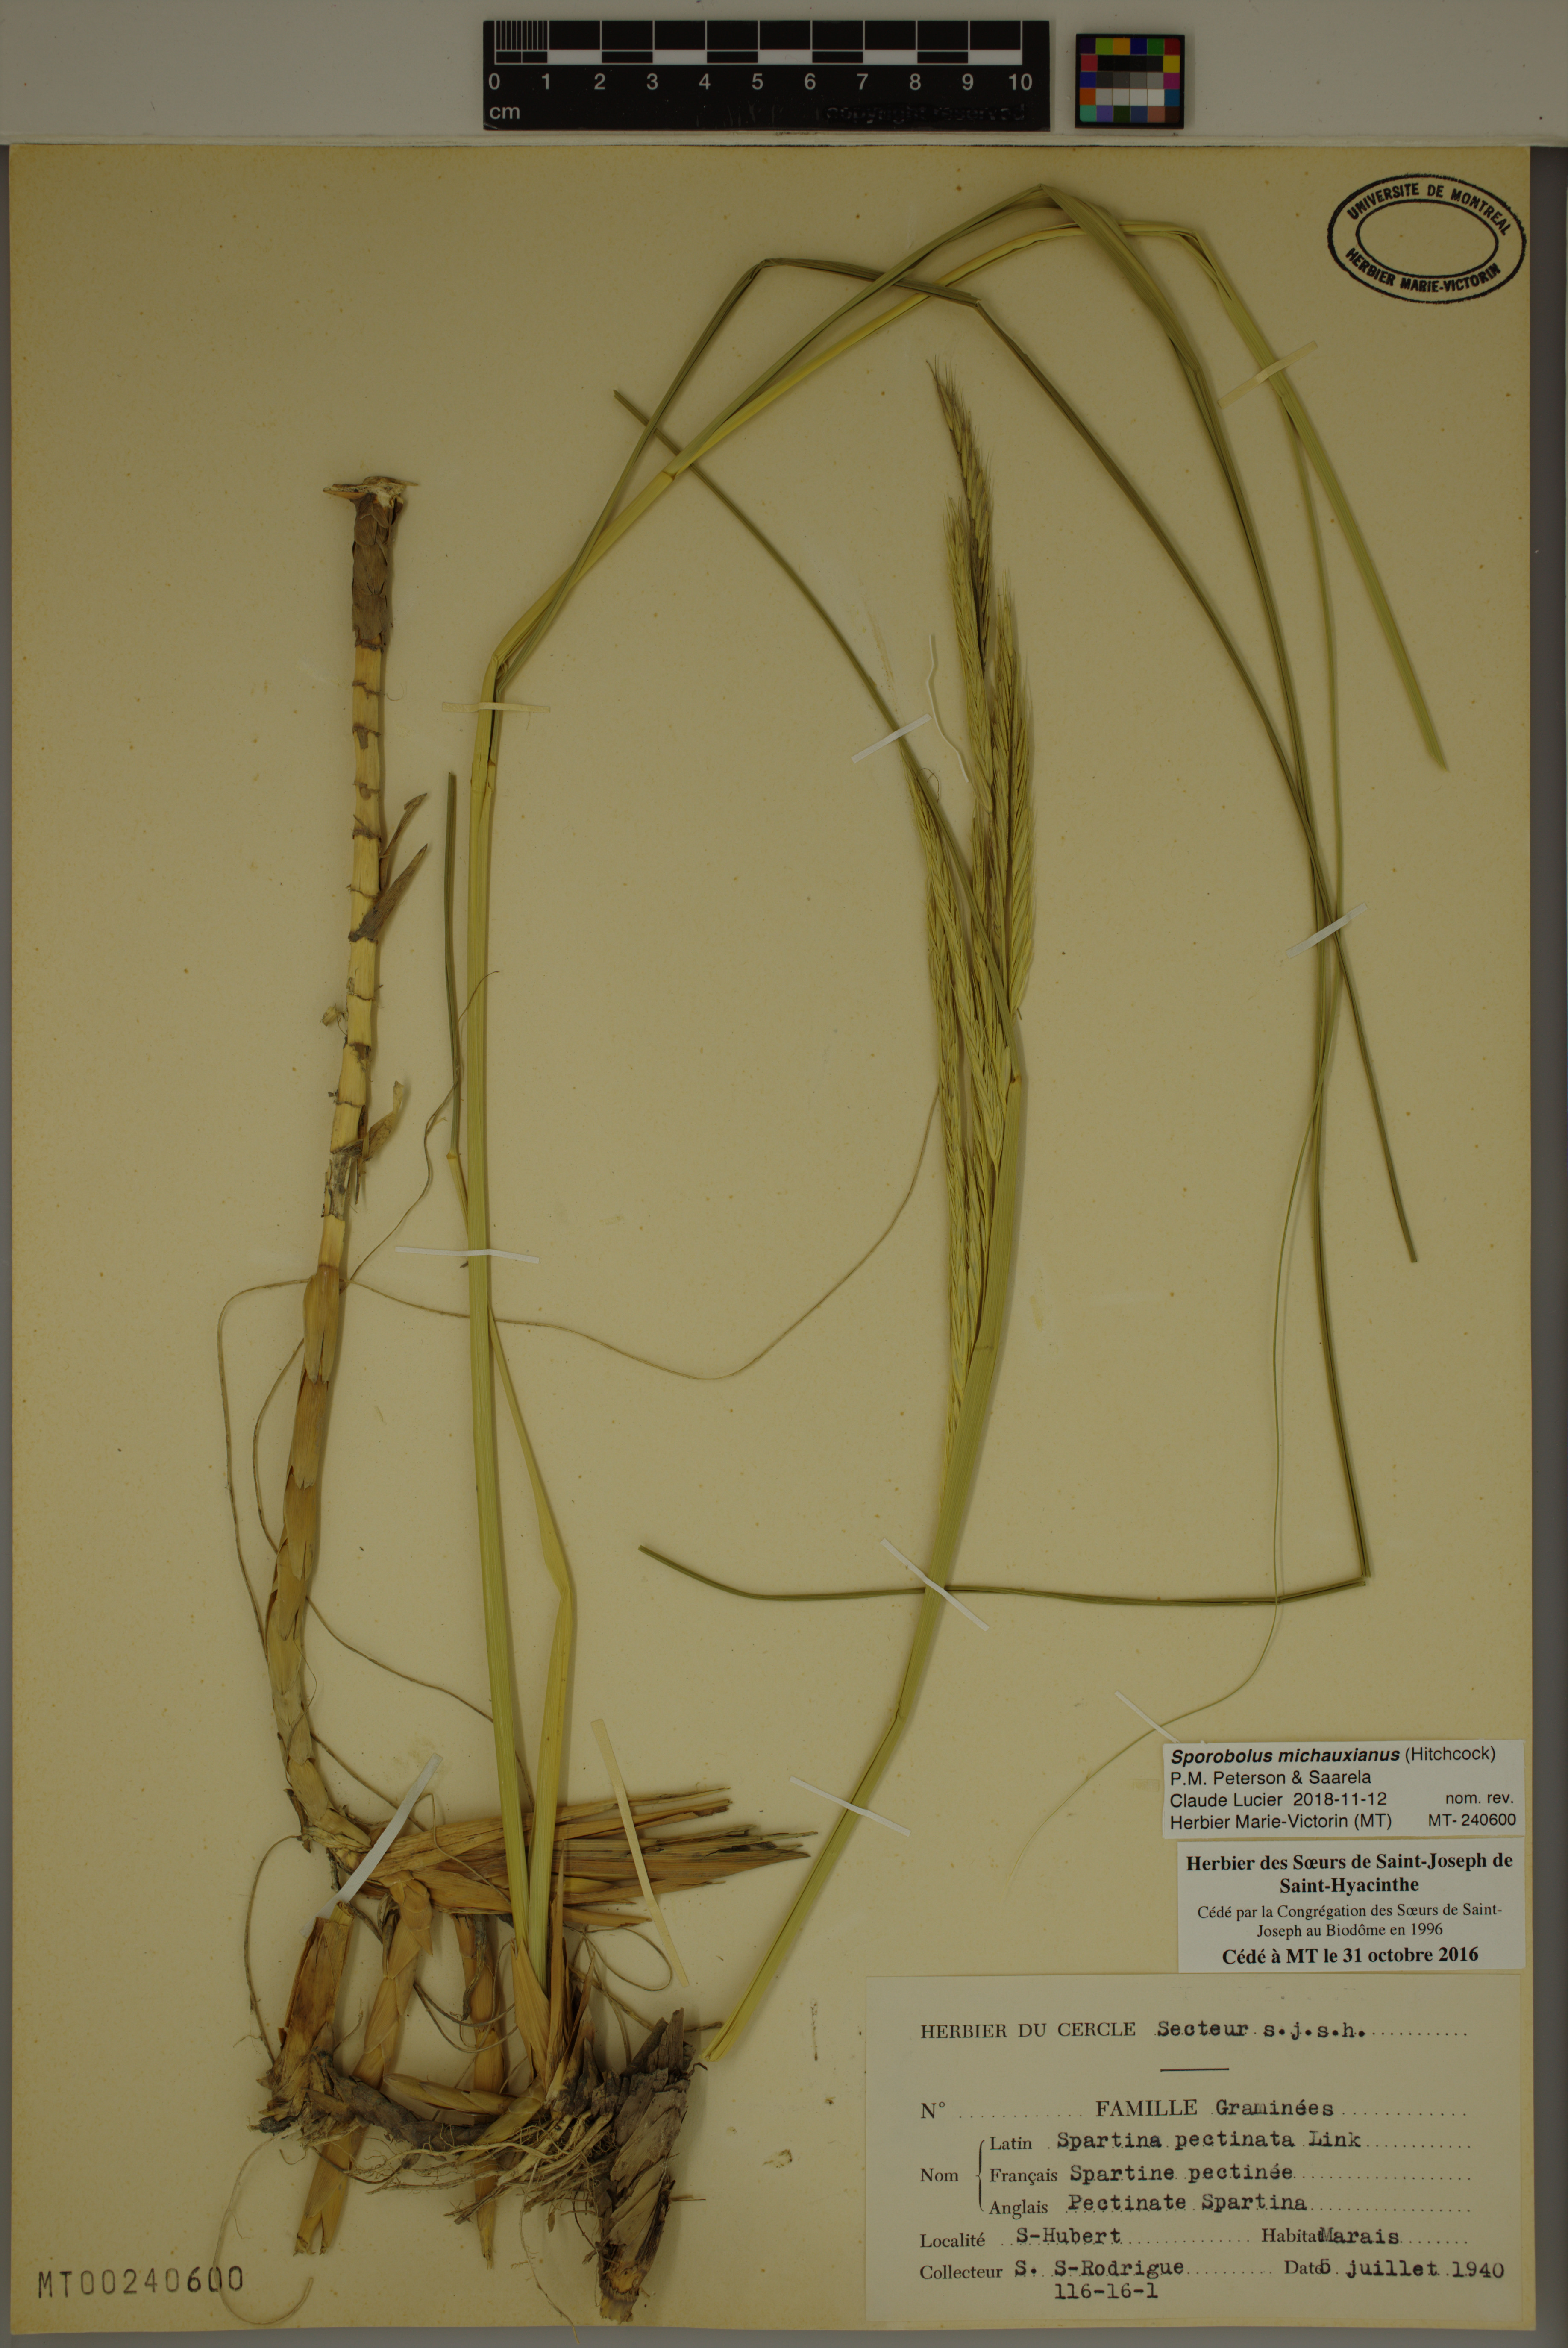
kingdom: Plantae
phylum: Tracheophyta
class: Liliopsida
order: Poales
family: Poaceae
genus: Sporobolus
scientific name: Sporobolus michauxianus
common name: Freshwater cordgrass
